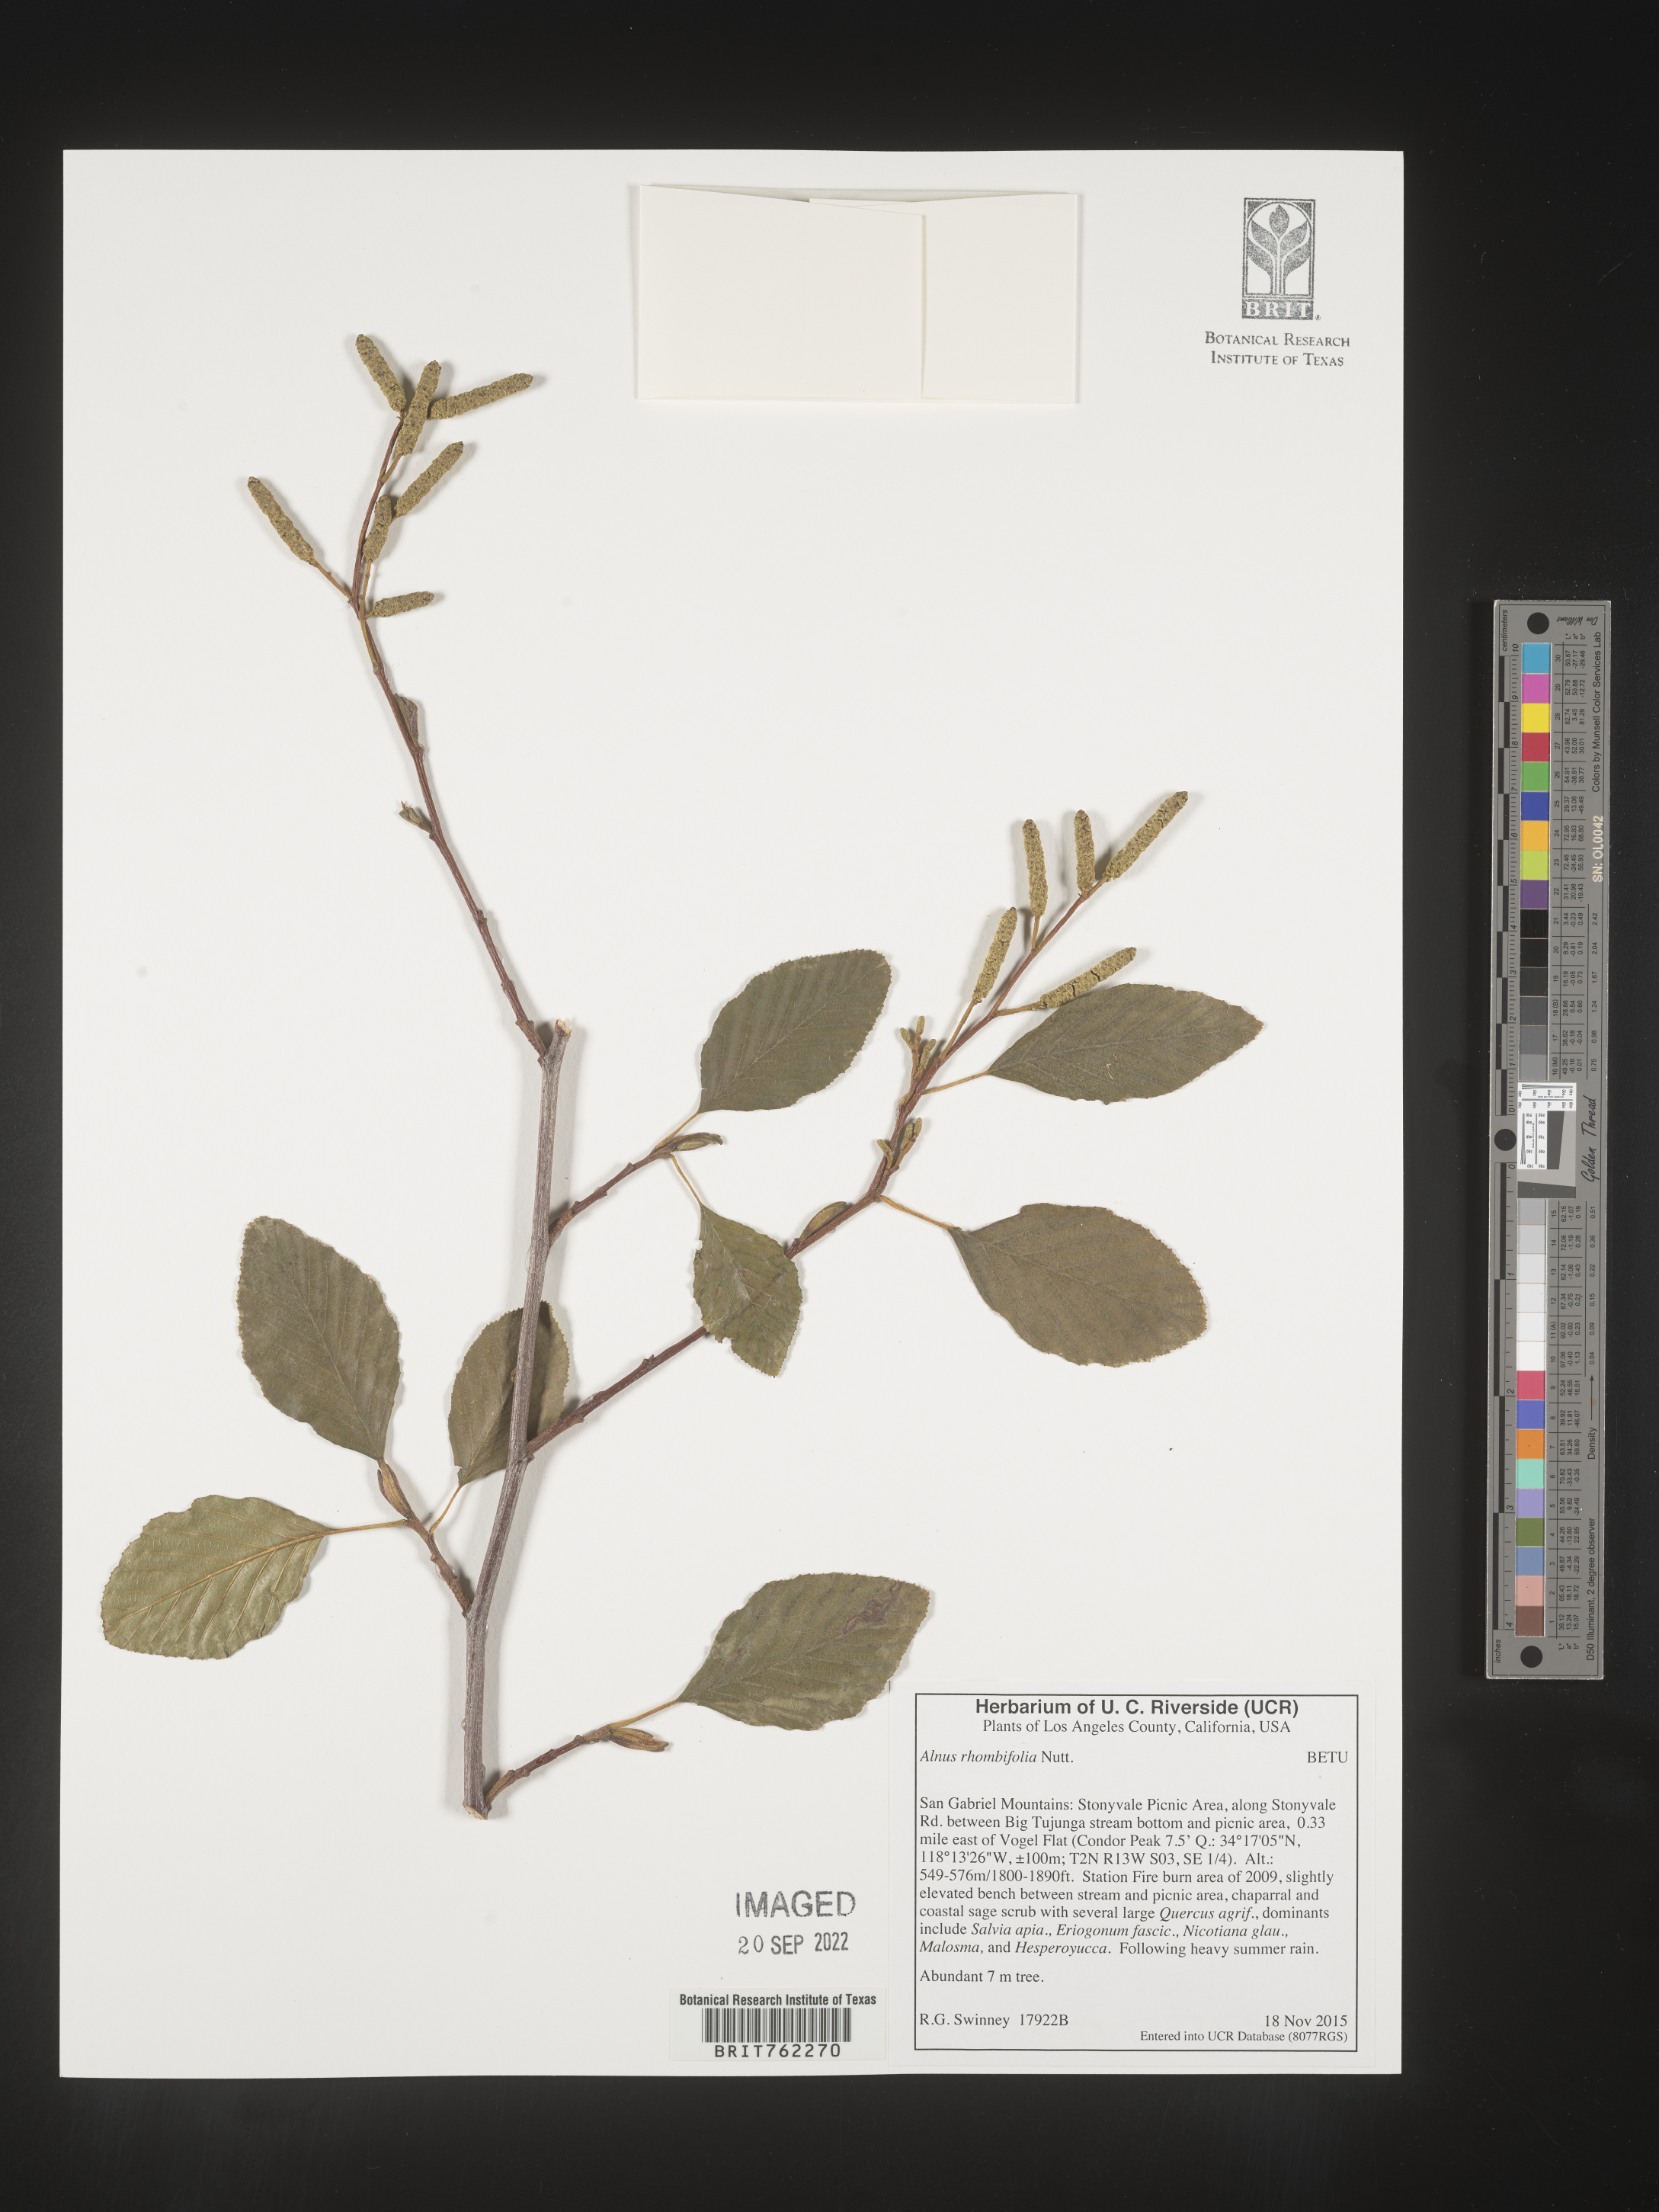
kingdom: Plantae
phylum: Tracheophyta
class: Magnoliopsida
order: Fagales
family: Betulaceae
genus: Alnus
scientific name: Alnus
